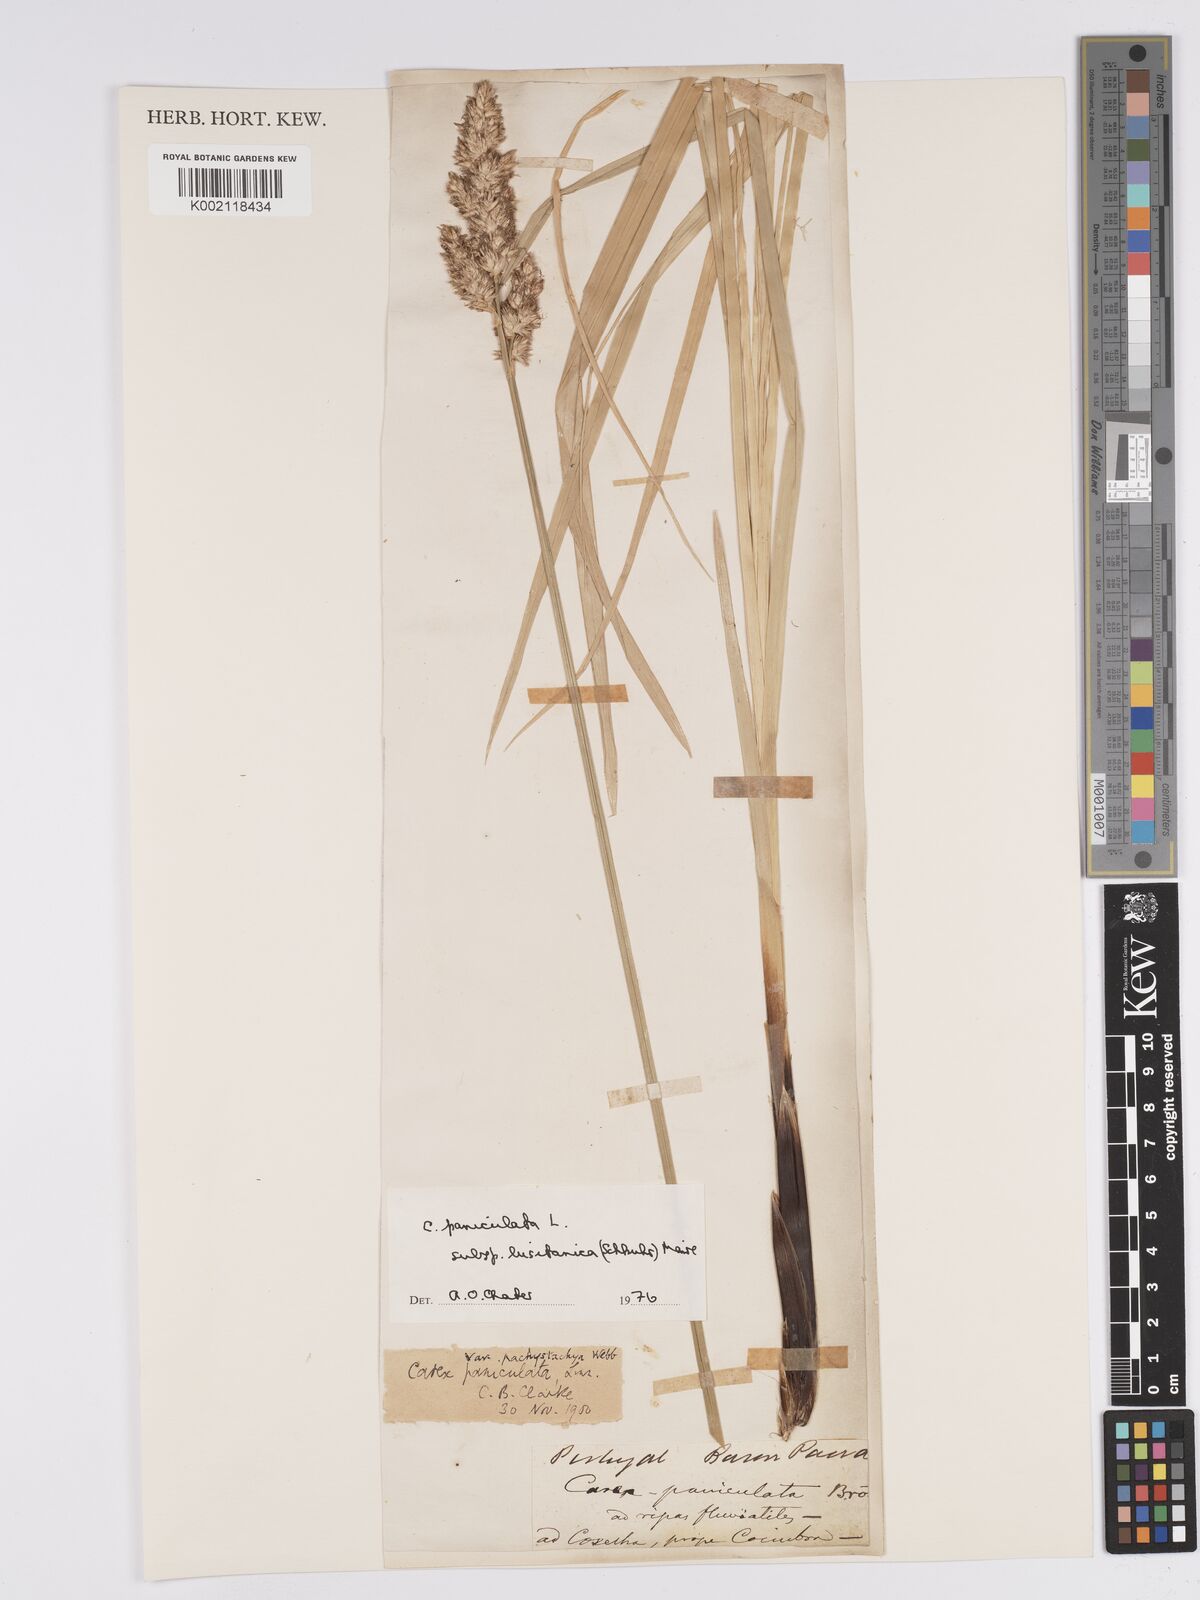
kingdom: Plantae
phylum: Tracheophyta
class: Liliopsida
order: Poales
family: Cyperaceae
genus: Carex
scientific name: Carex paniculata
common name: Greater tussock-sedge
